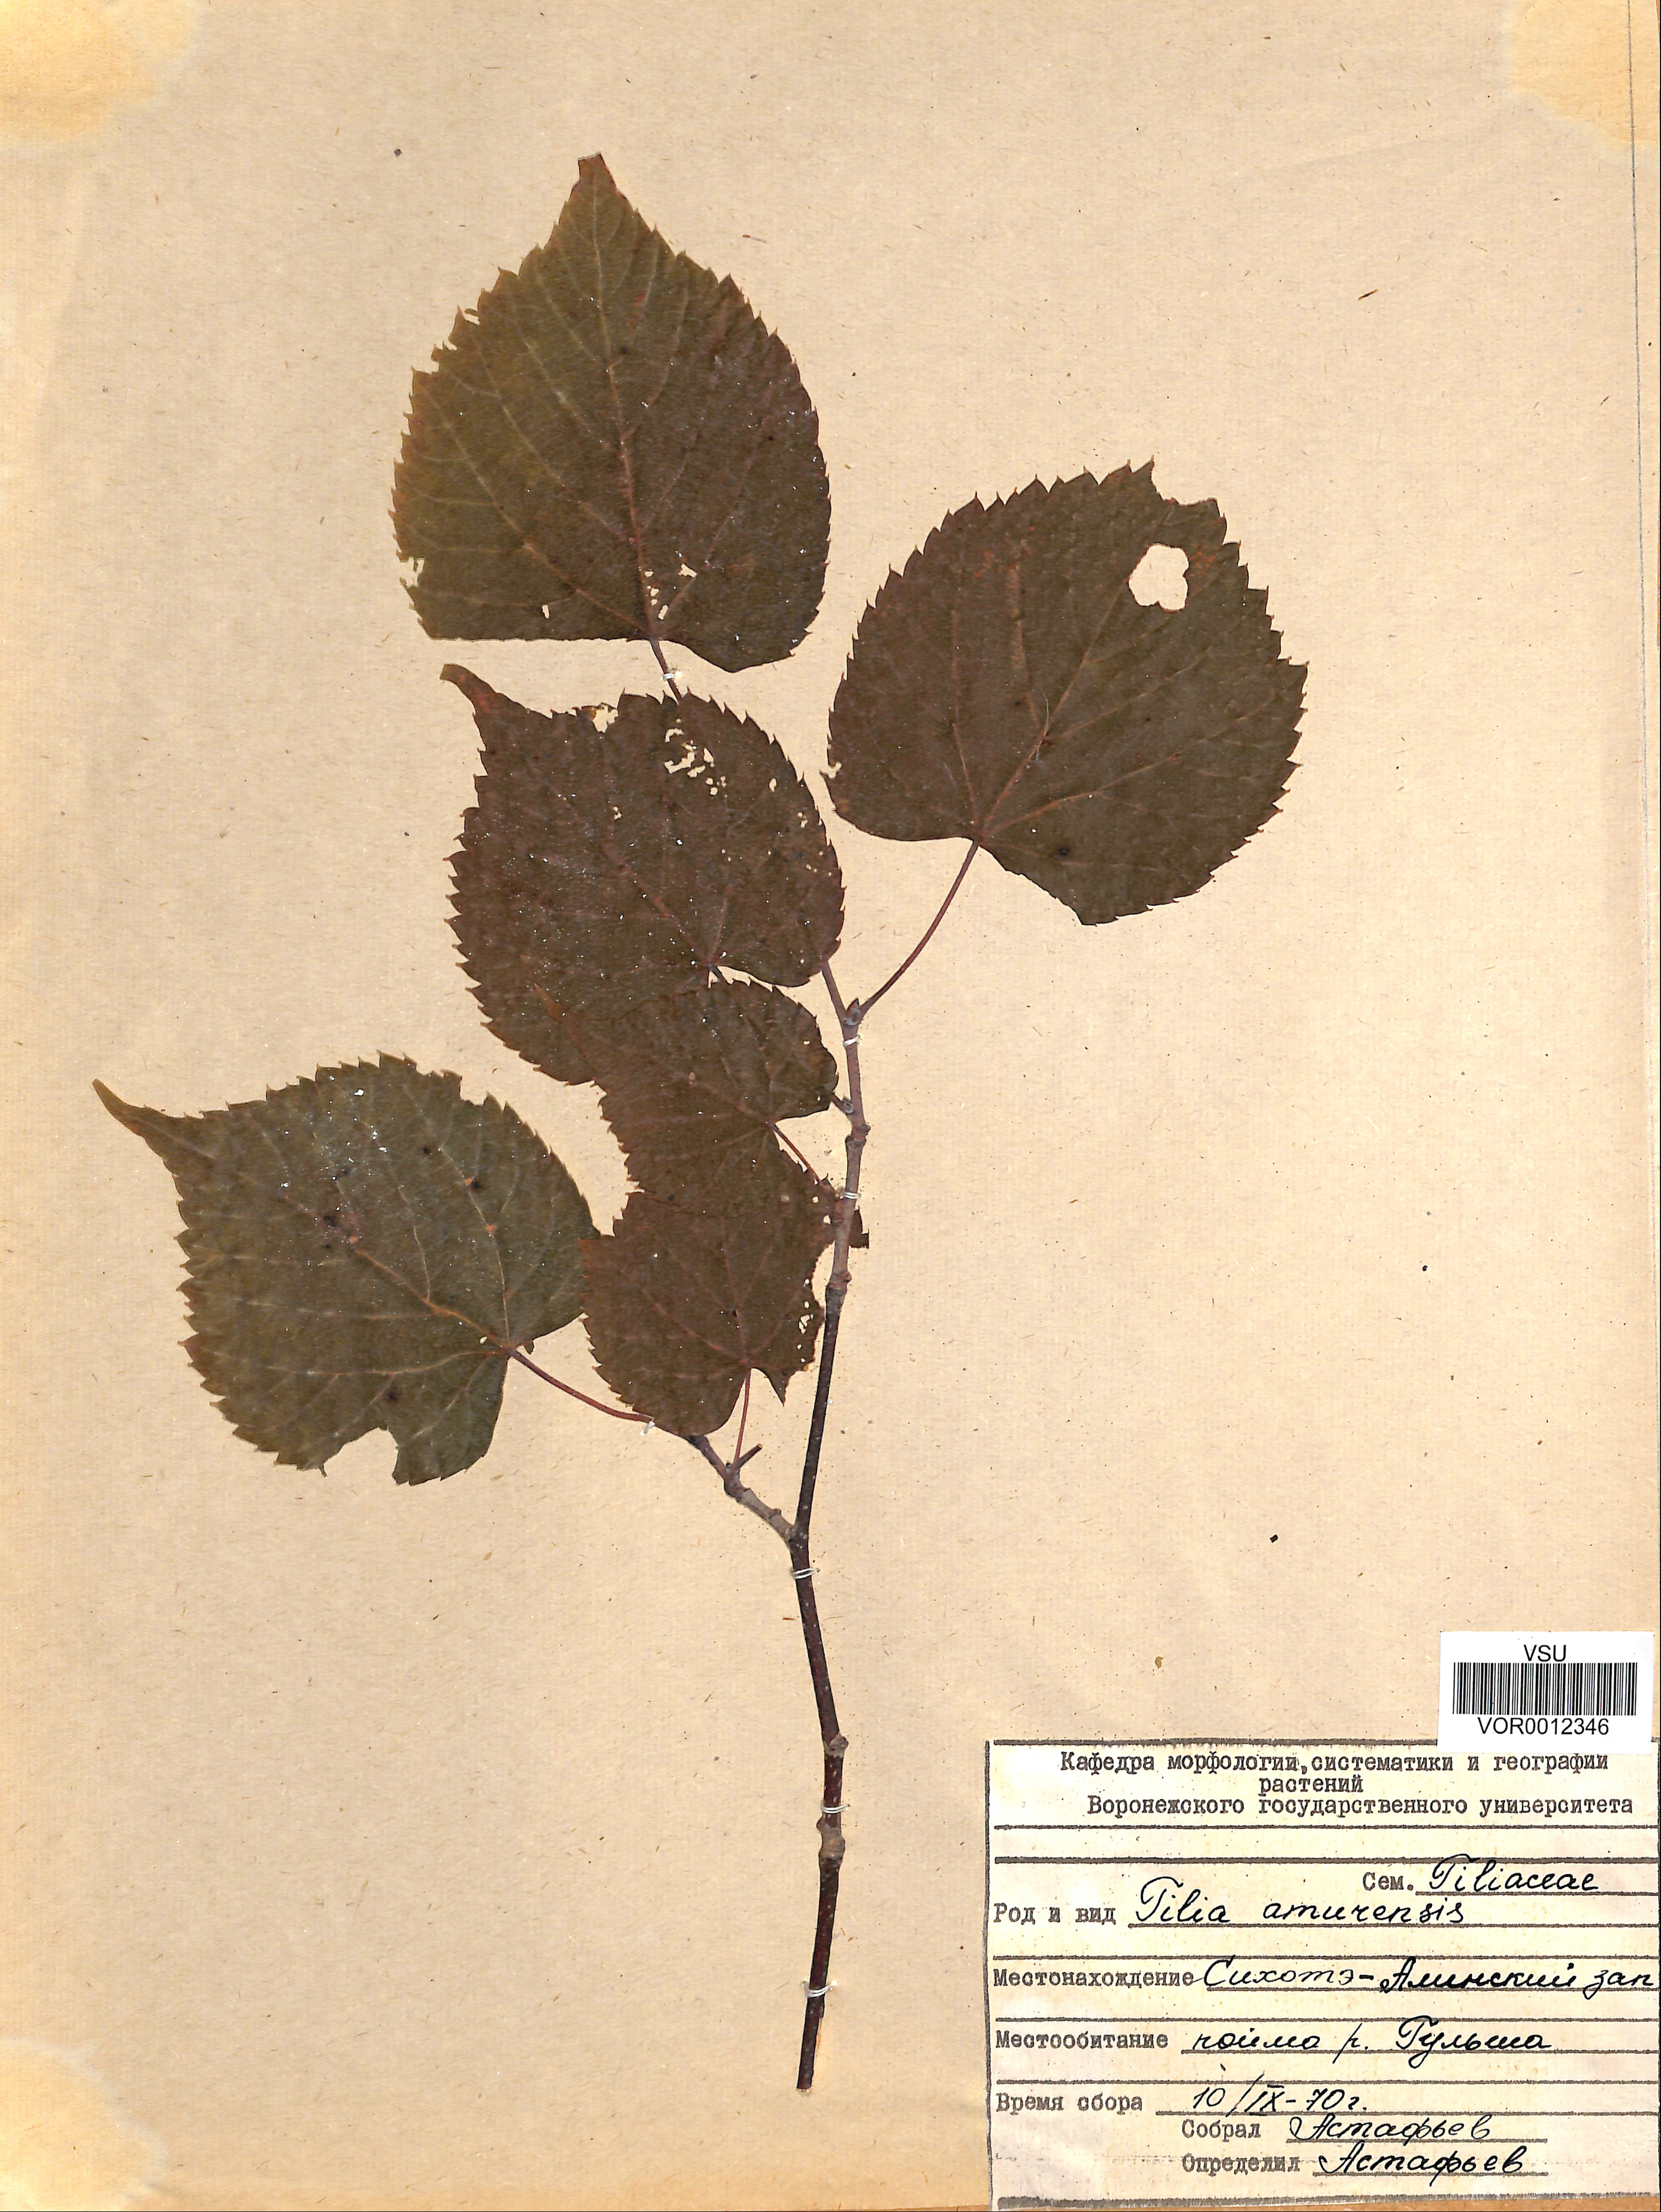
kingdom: Plantae
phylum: Tracheophyta
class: Magnoliopsida
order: Malvales
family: Malvaceae
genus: Tilia
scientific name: Tilia amurensis
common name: Amur lime
